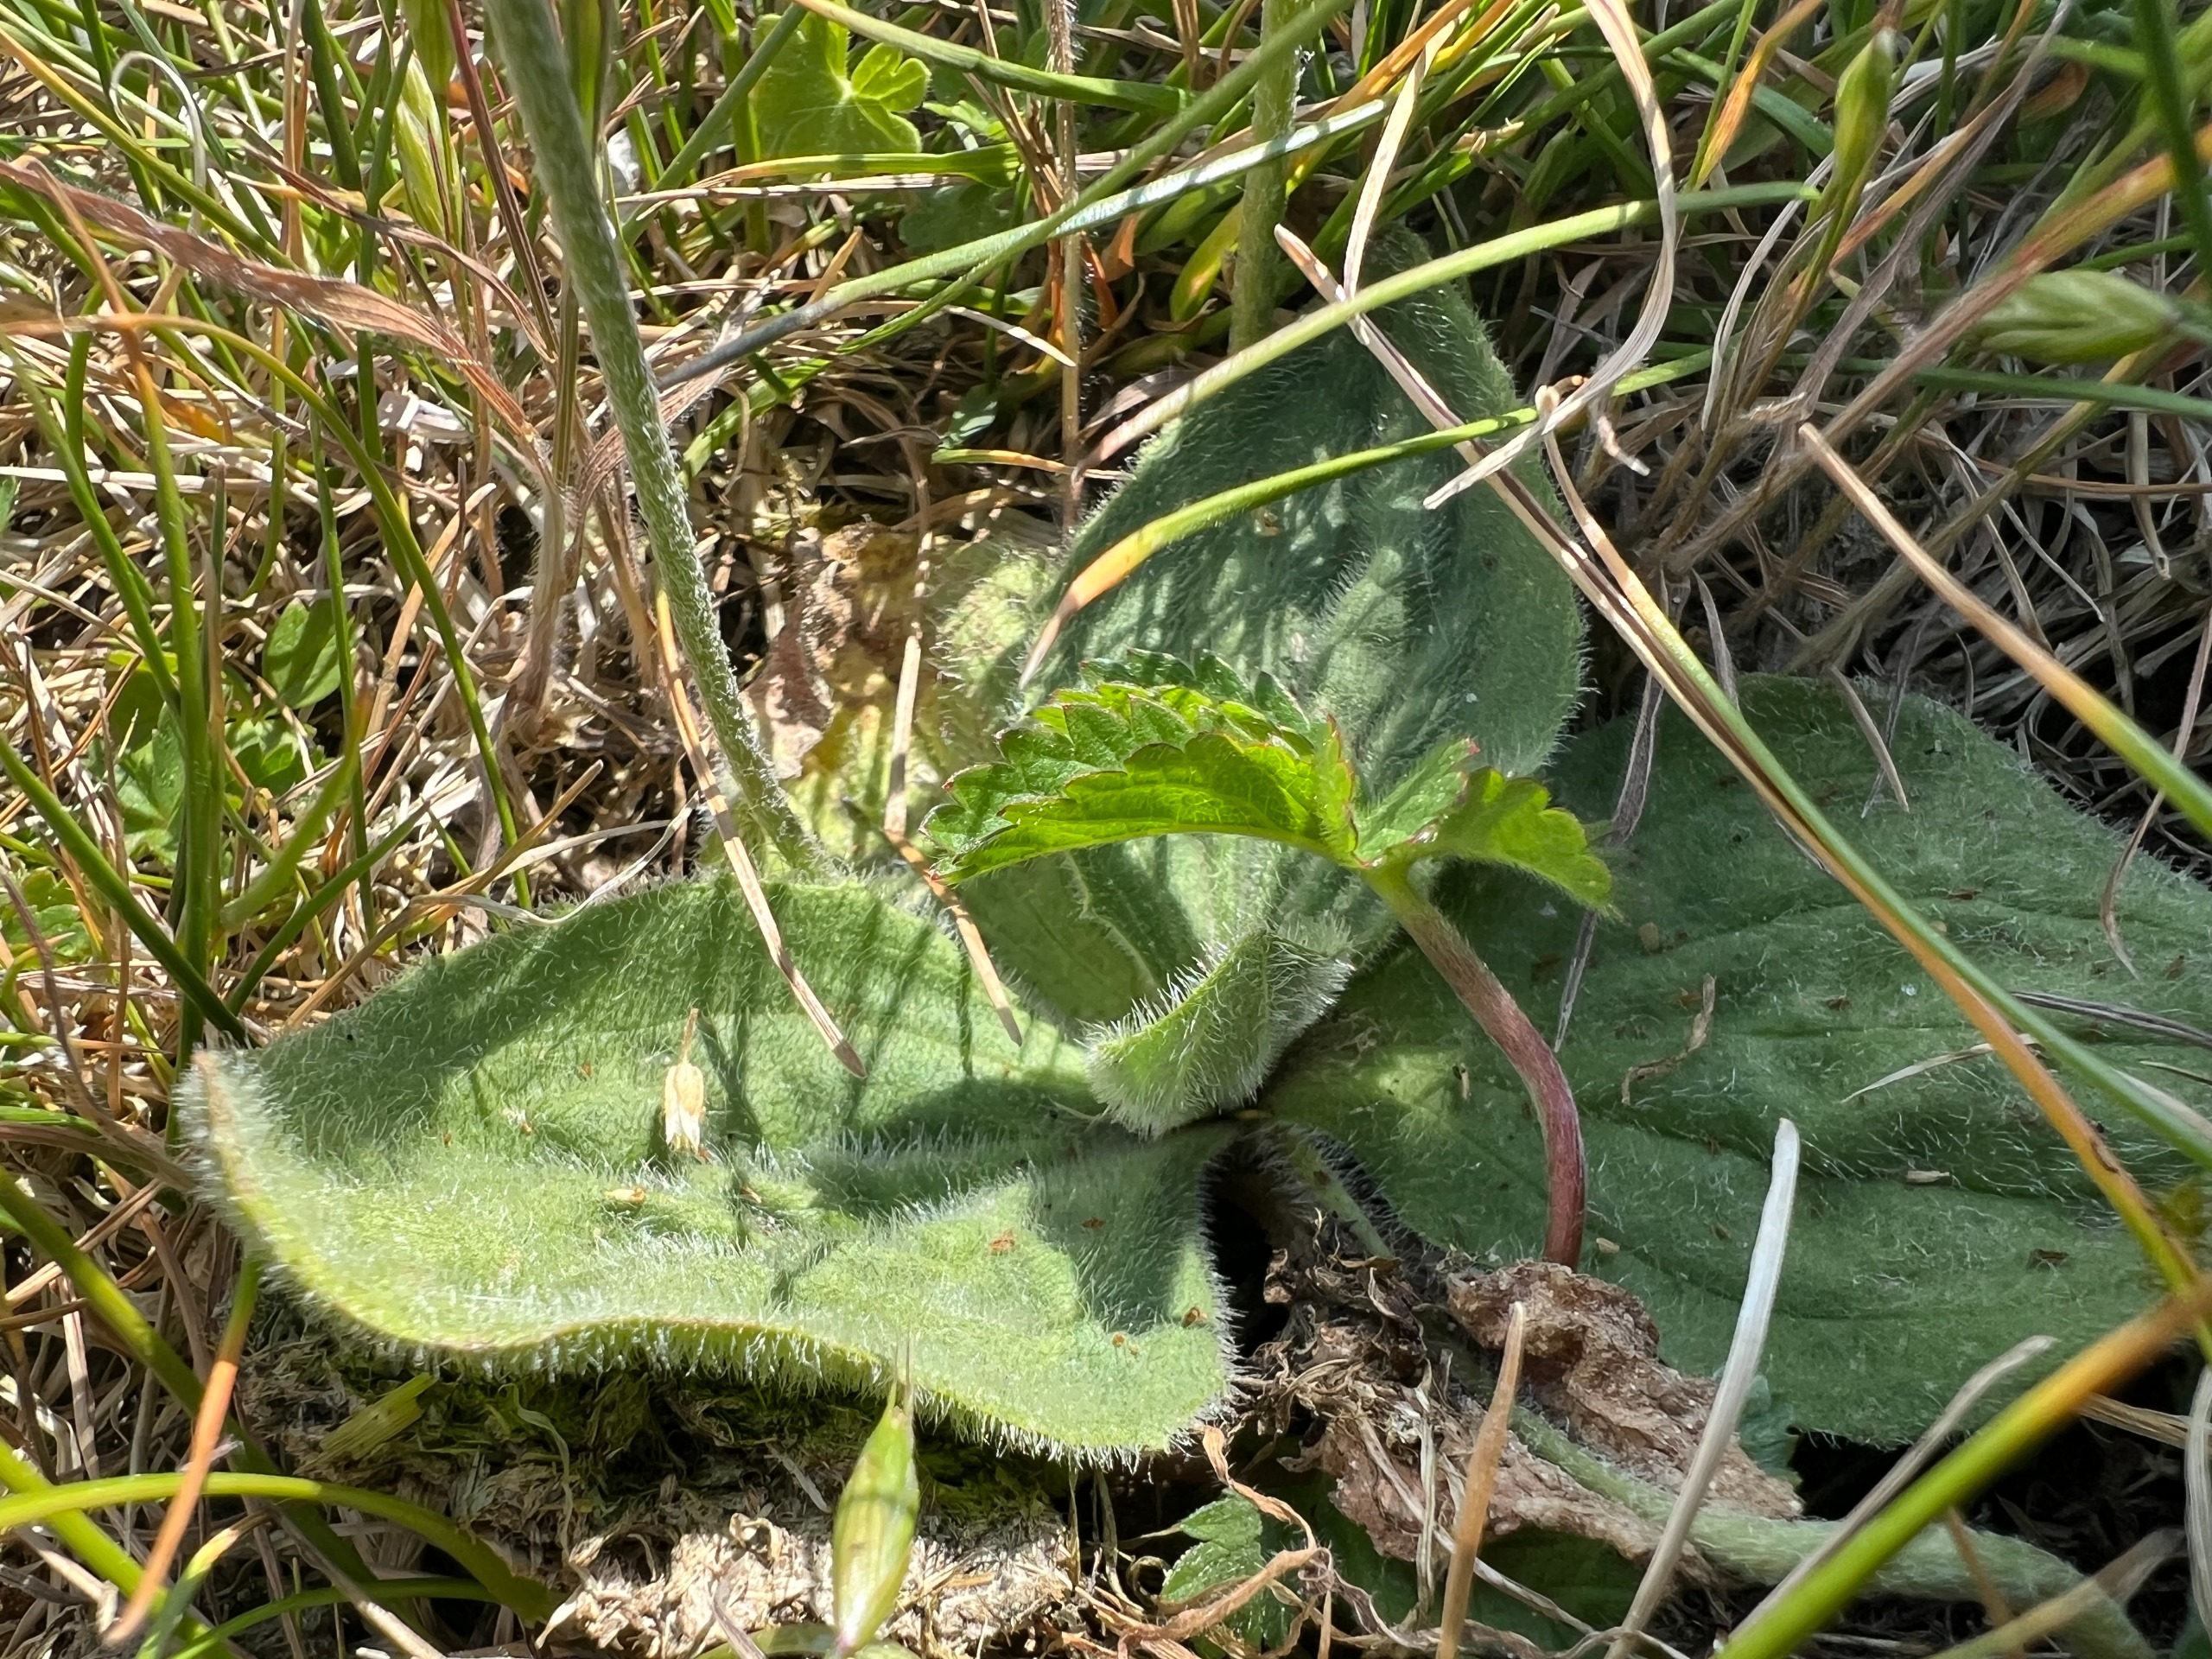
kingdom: Plantae
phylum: Tracheophyta
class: Magnoliopsida
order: Lamiales
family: Plantaginaceae
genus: Plantago
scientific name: Plantago media
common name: Dunet vejbred
